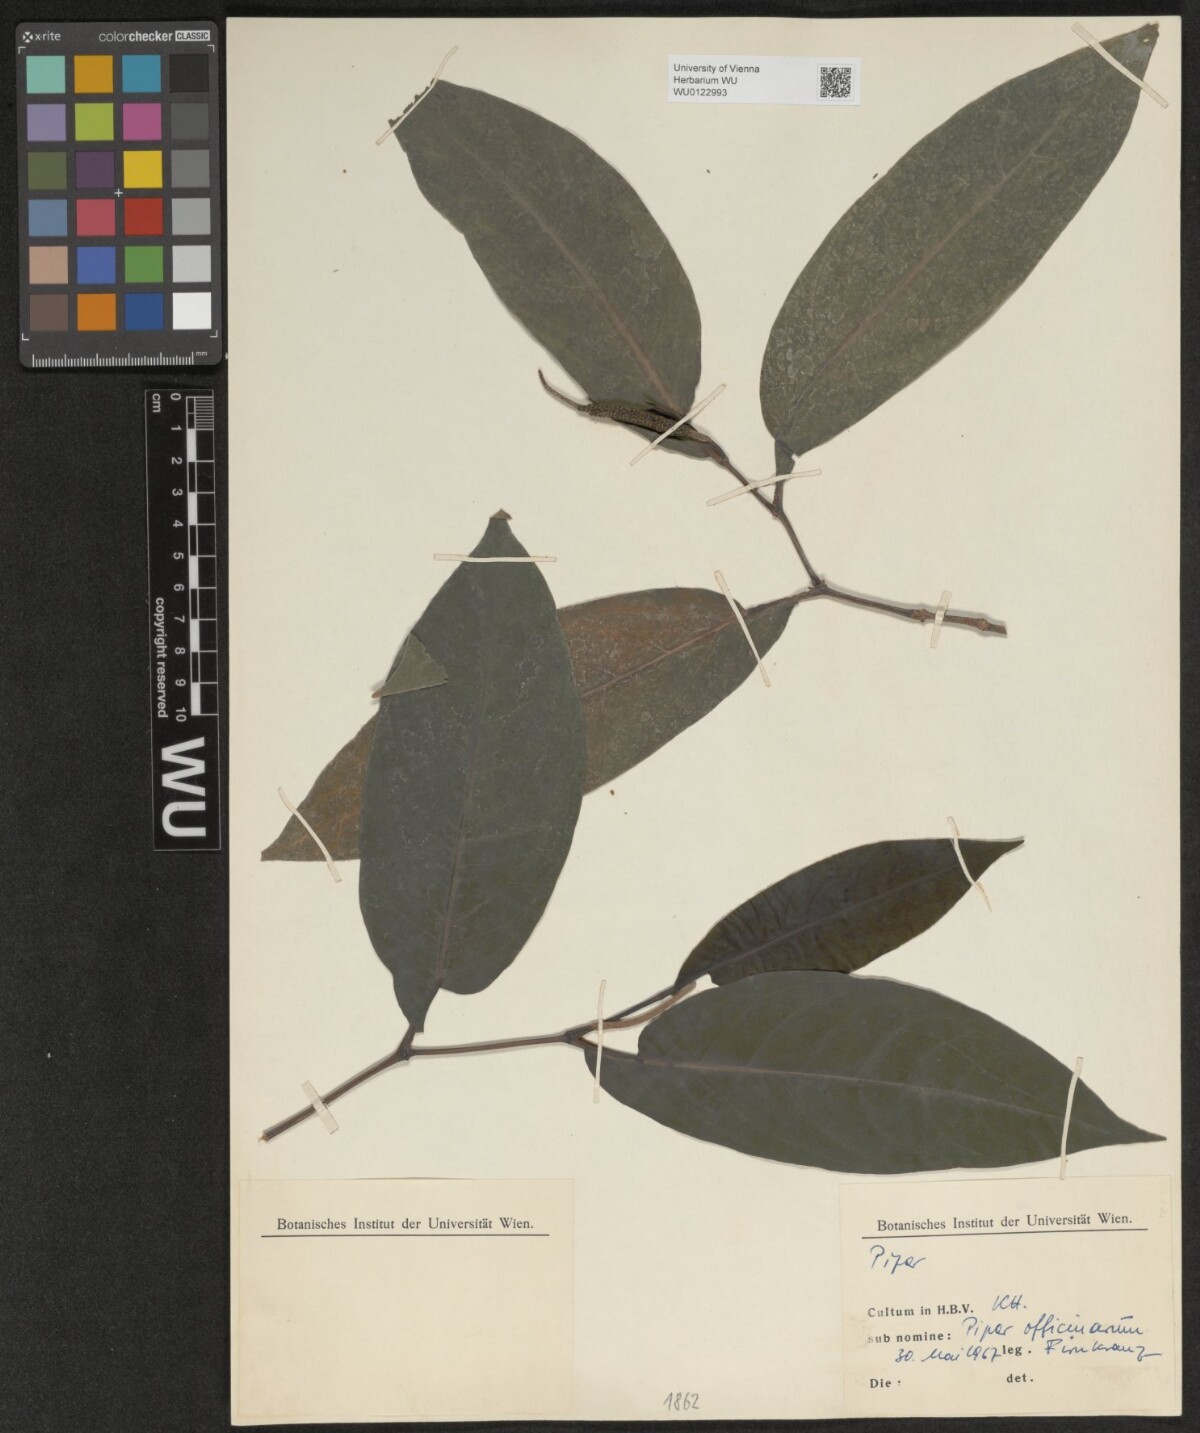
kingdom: Plantae
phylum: Tracheophyta
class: Magnoliopsida
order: Piperales
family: Piperaceae
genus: Piper
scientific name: Piper
